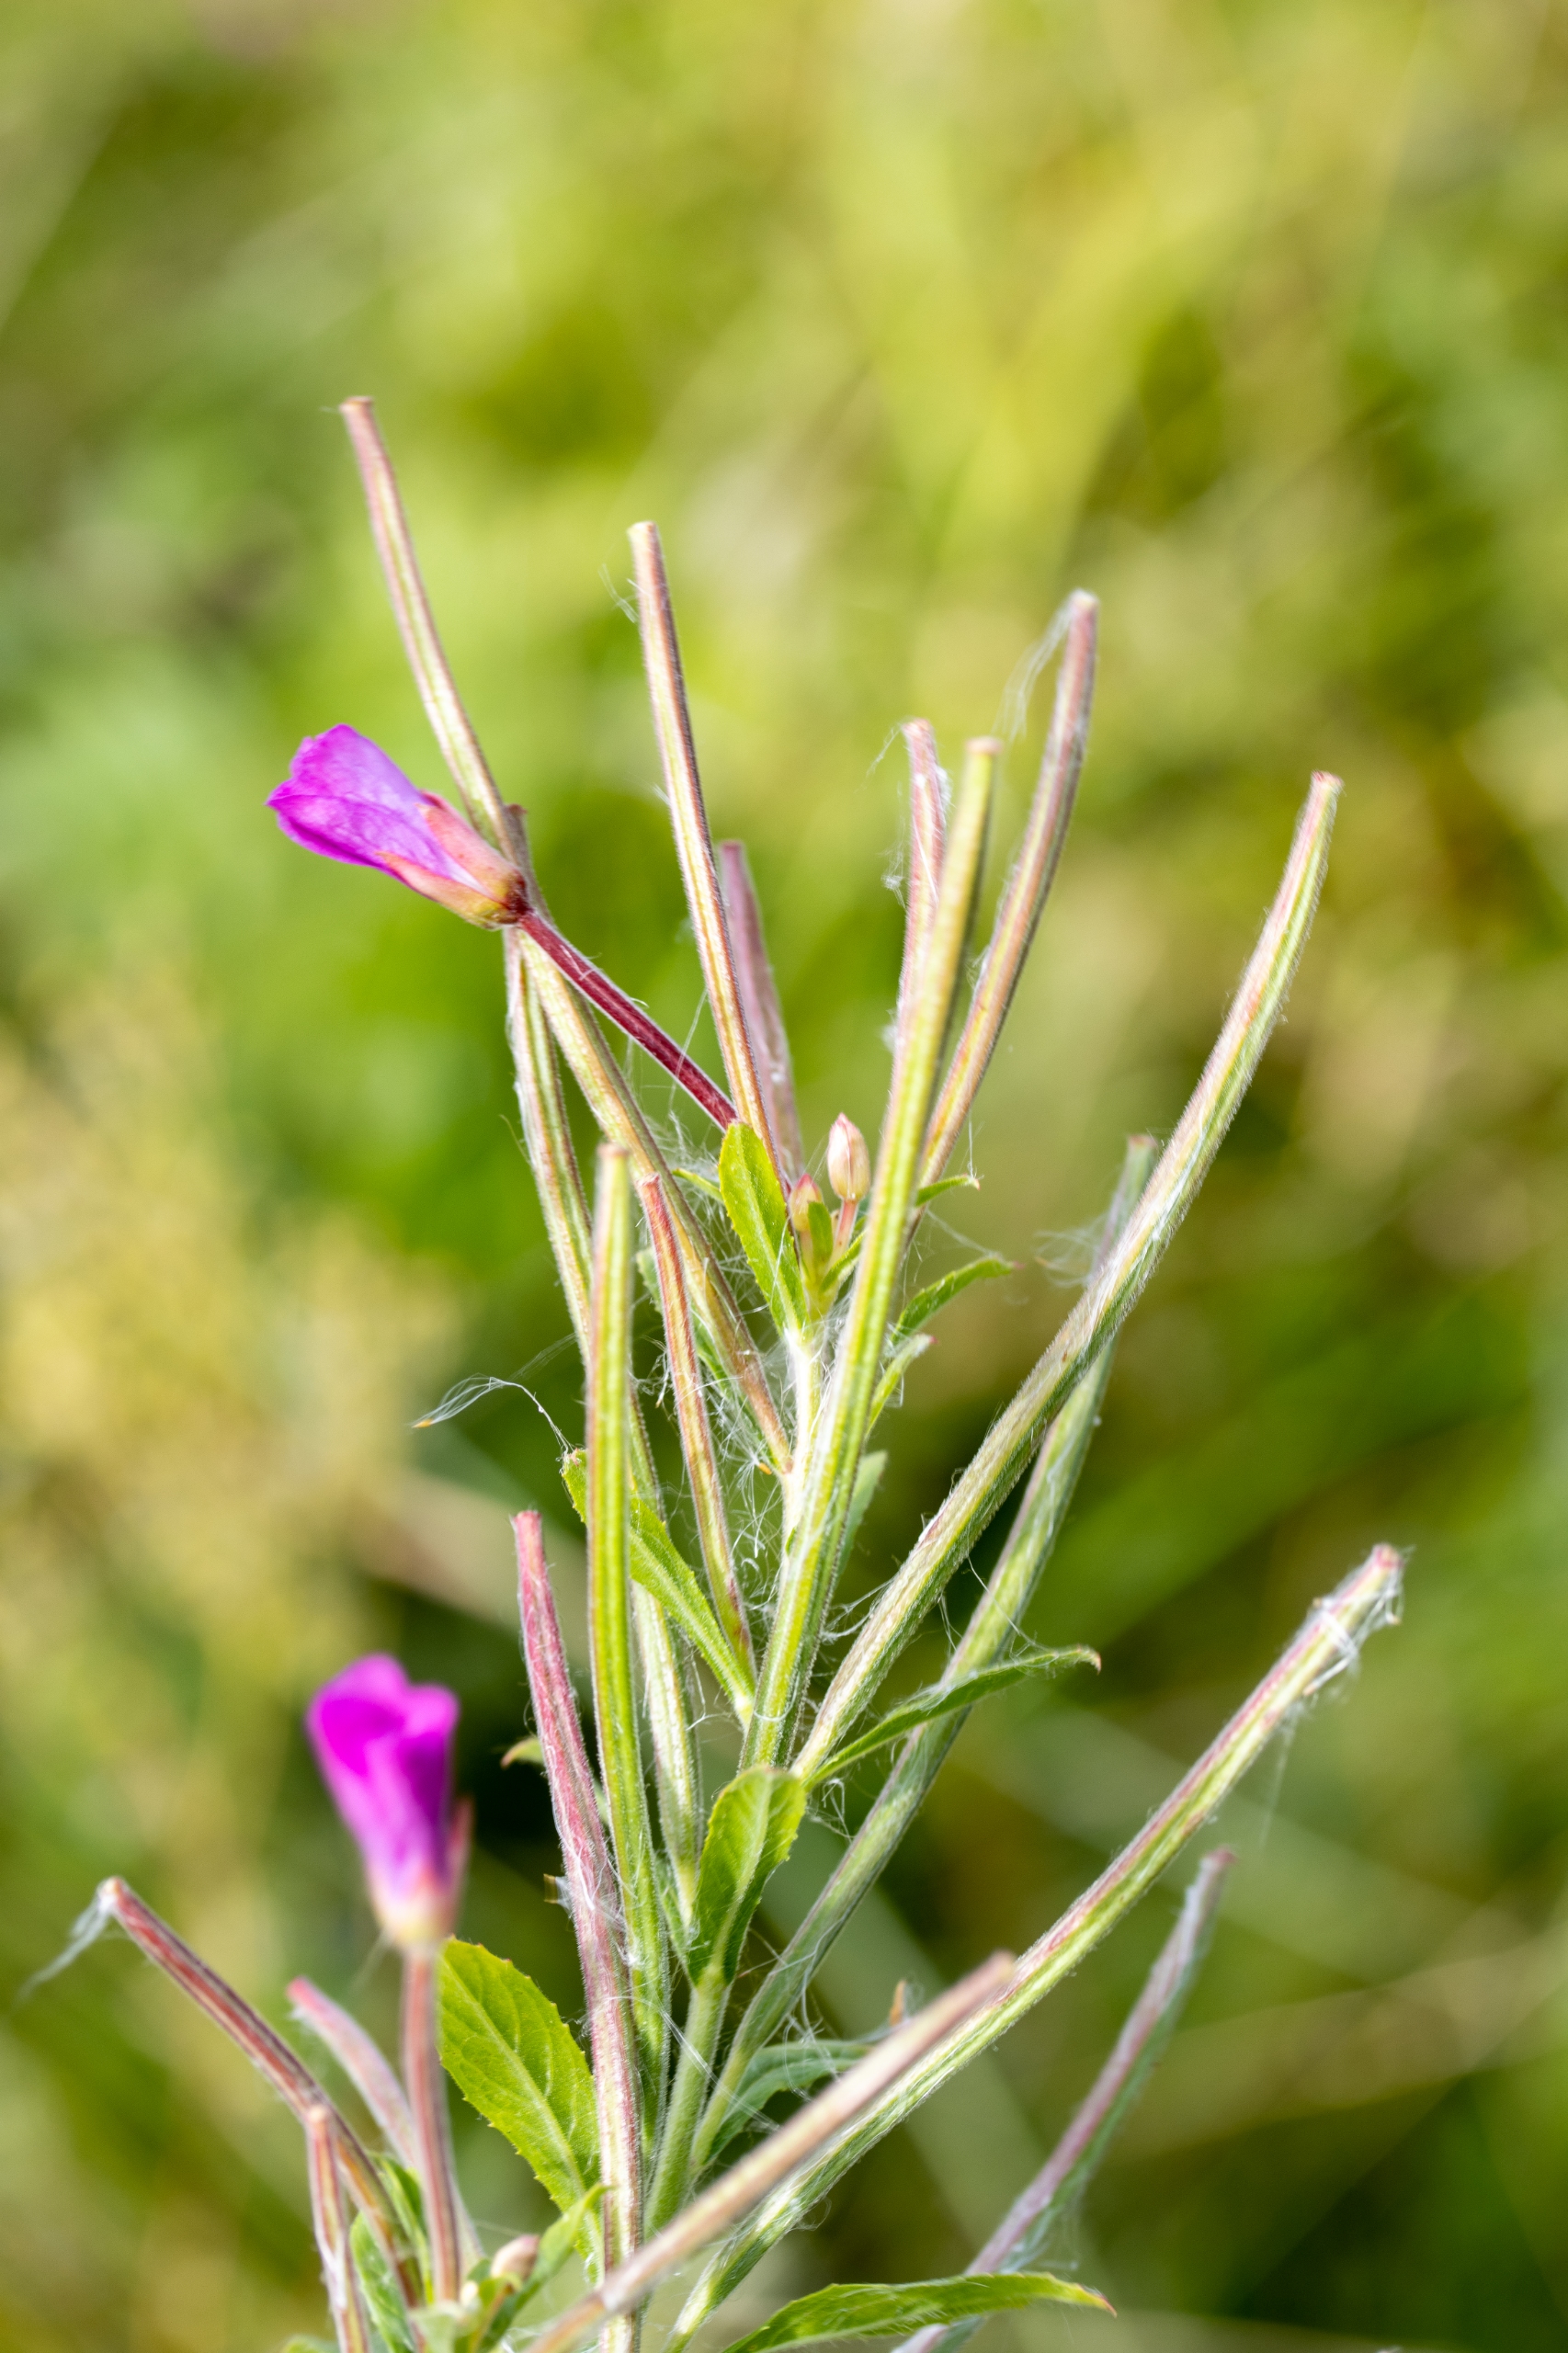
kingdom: Plantae
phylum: Tracheophyta
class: Magnoliopsida
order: Myrtales
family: Onagraceae
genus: Epilobium
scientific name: Epilobium hirsutum
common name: Lådden dueurt
